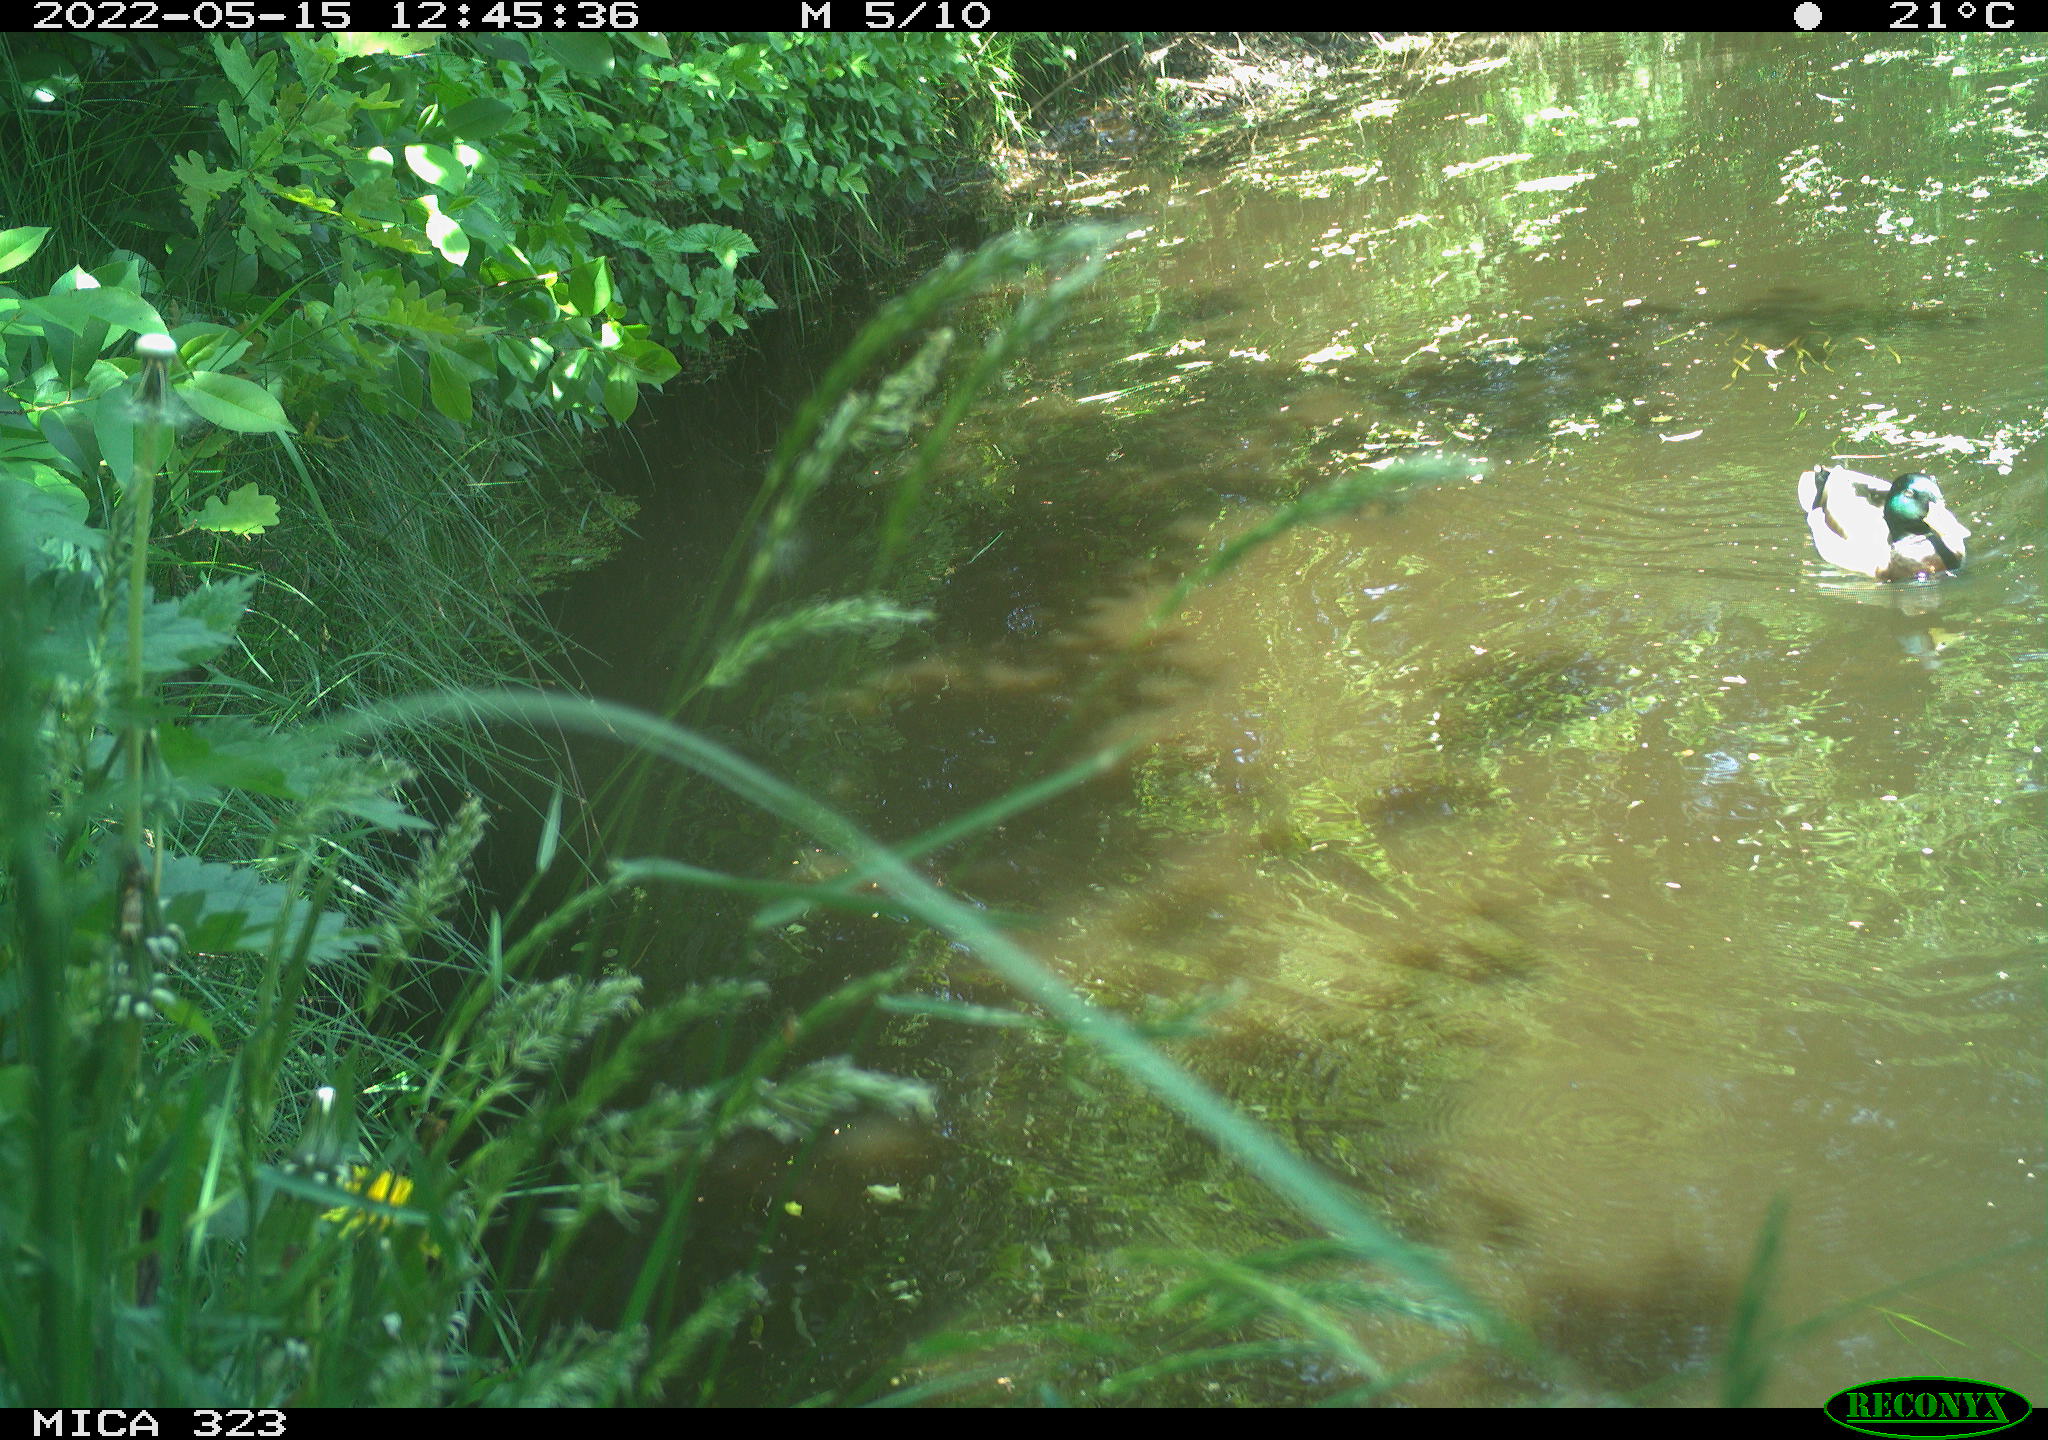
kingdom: Animalia
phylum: Chordata
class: Aves
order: Anseriformes
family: Anatidae
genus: Anas
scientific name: Anas platyrhynchos
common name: Mallard
